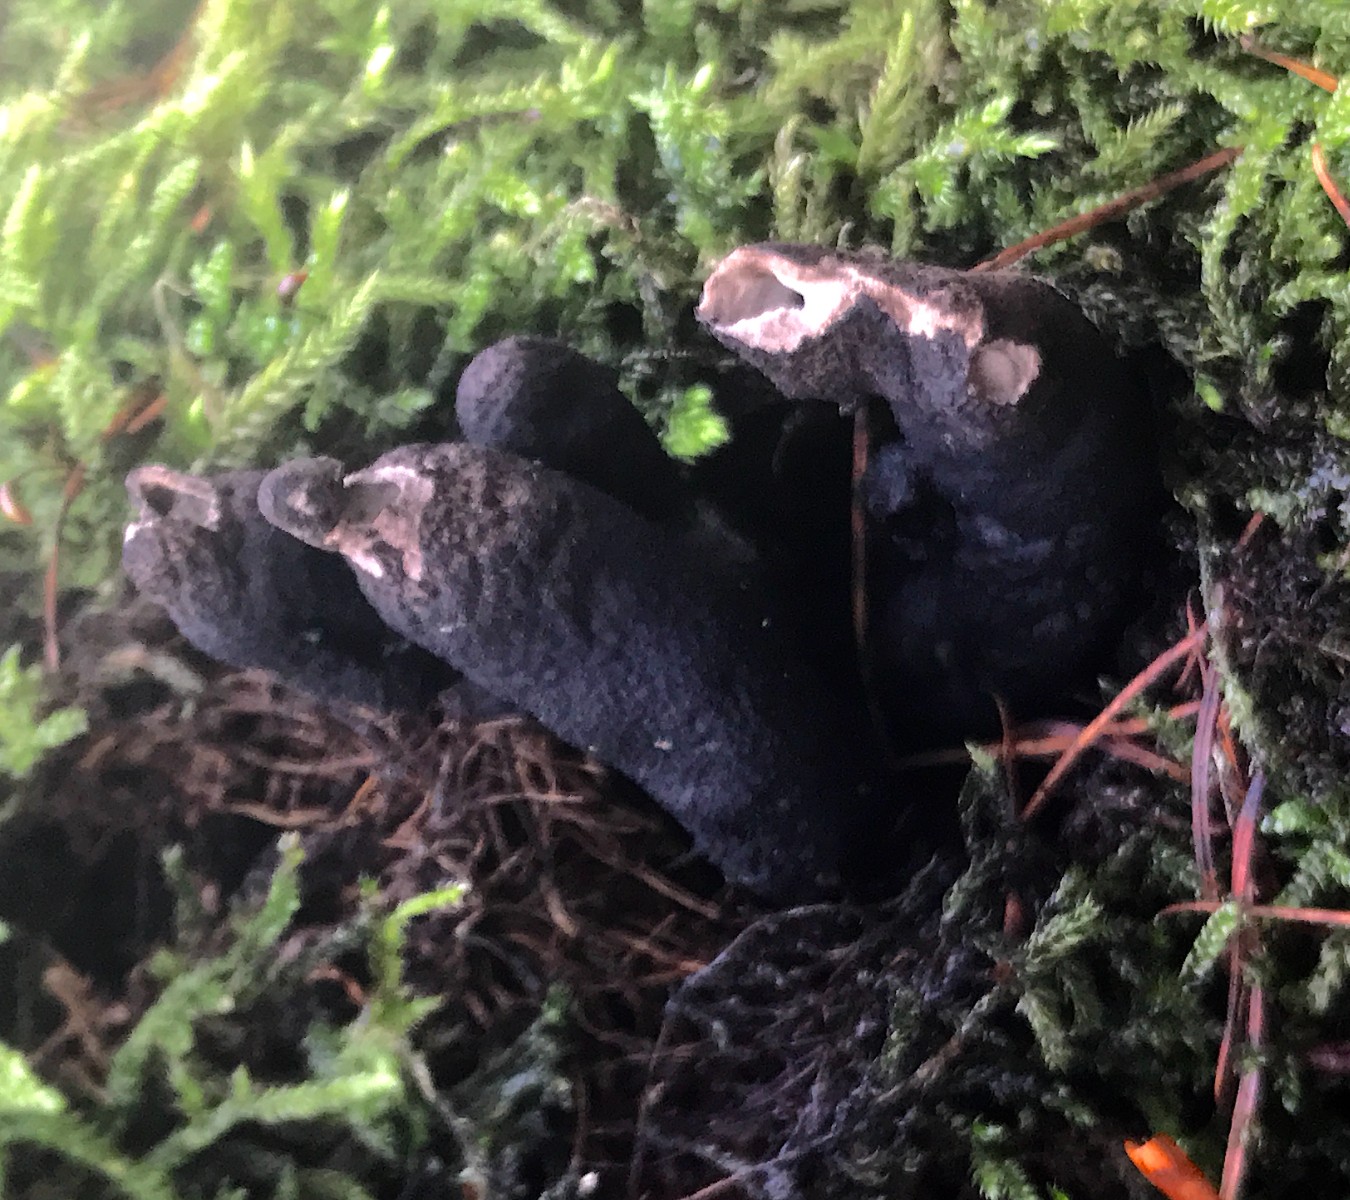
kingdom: Fungi
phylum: Ascomycota
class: Sordariomycetes
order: Xylariales
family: Xylariaceae
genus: Xylaria
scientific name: Xylaria polymorpha
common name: kølle-stødsvamp
